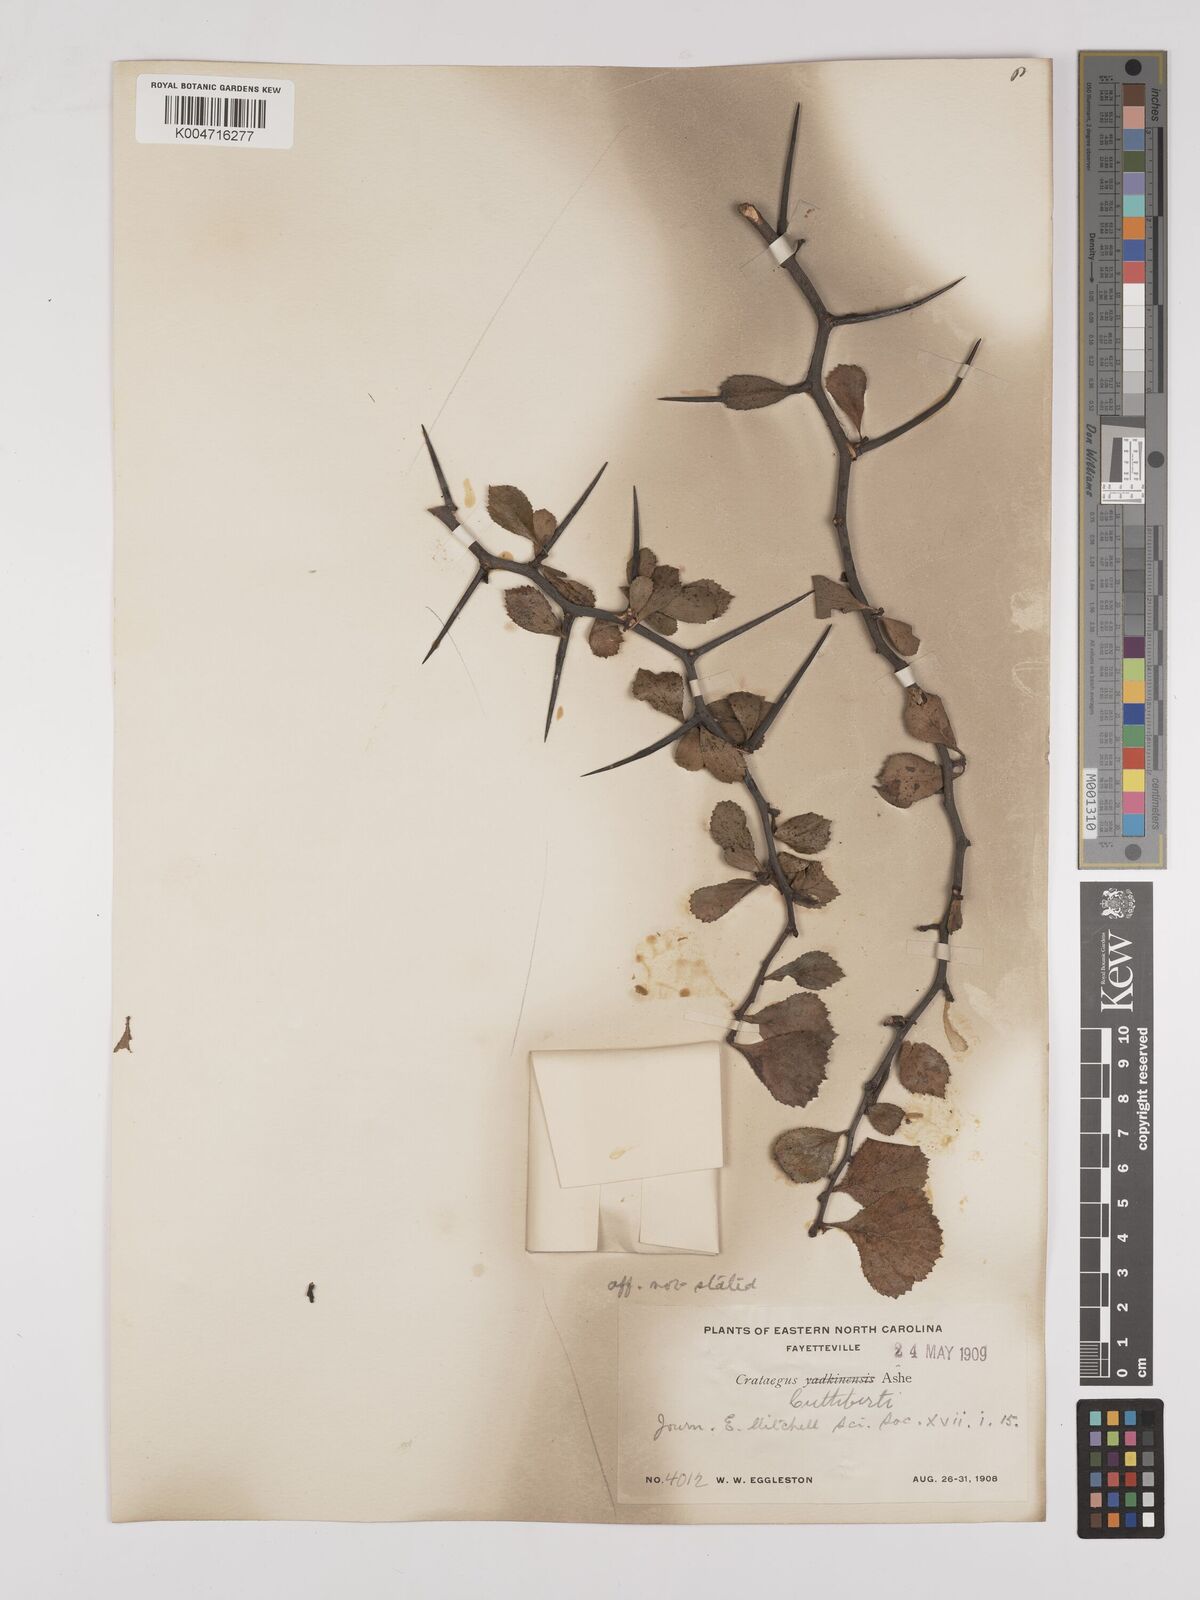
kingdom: Plantae
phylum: Tracheophyta
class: Magnoliopsida
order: Rosales
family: Rosaceae
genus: Crataegus
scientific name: Crataegus cuthbertii
